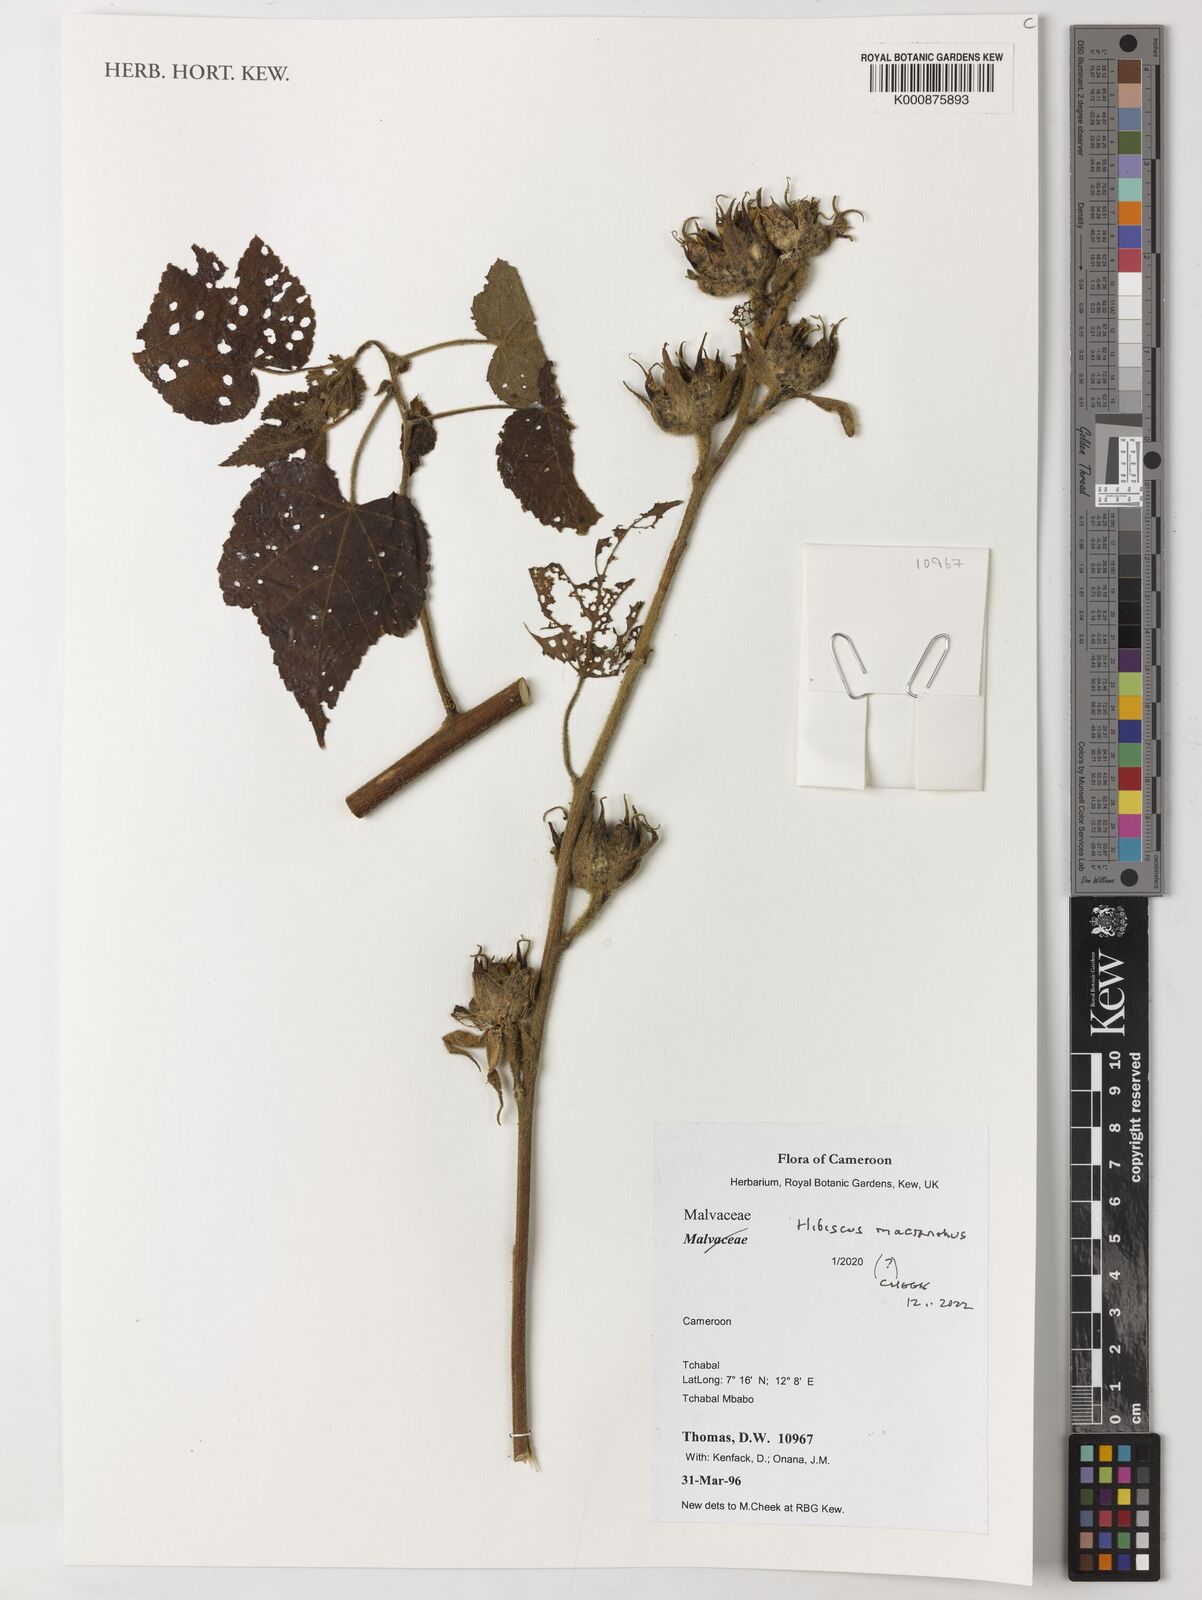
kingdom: Plantae
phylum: Tracheophyta
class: Magnoliopsida
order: Malvales
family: Malvaceae
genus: Hibiscus
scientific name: Hibiscus macranthus
